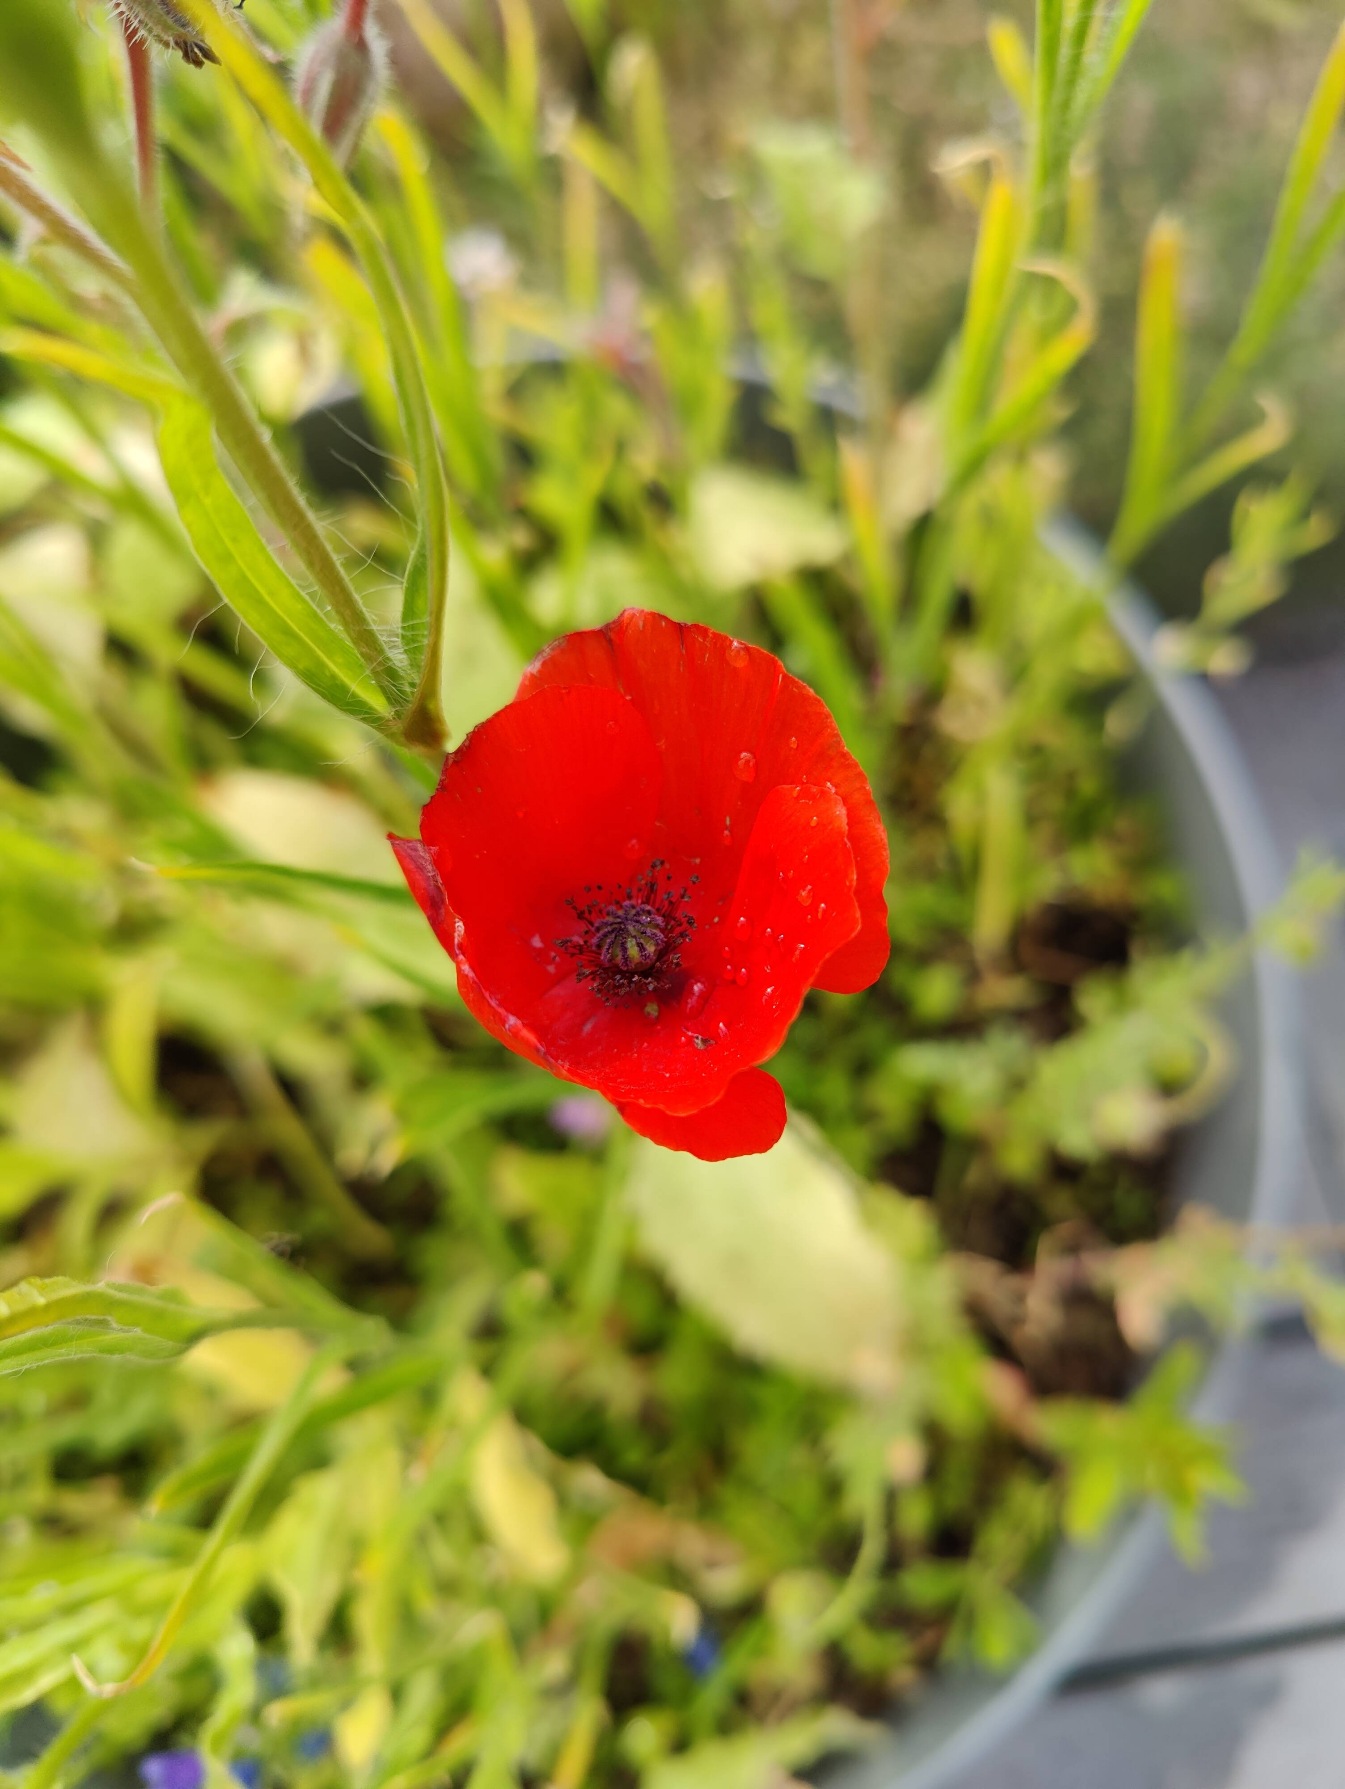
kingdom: Plantae
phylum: Tracheophyta
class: Magnoliopsida
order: Ranunculales
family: Papaveraceae
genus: Papaver
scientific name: Papaver rhoeas
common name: Korn-valmue
